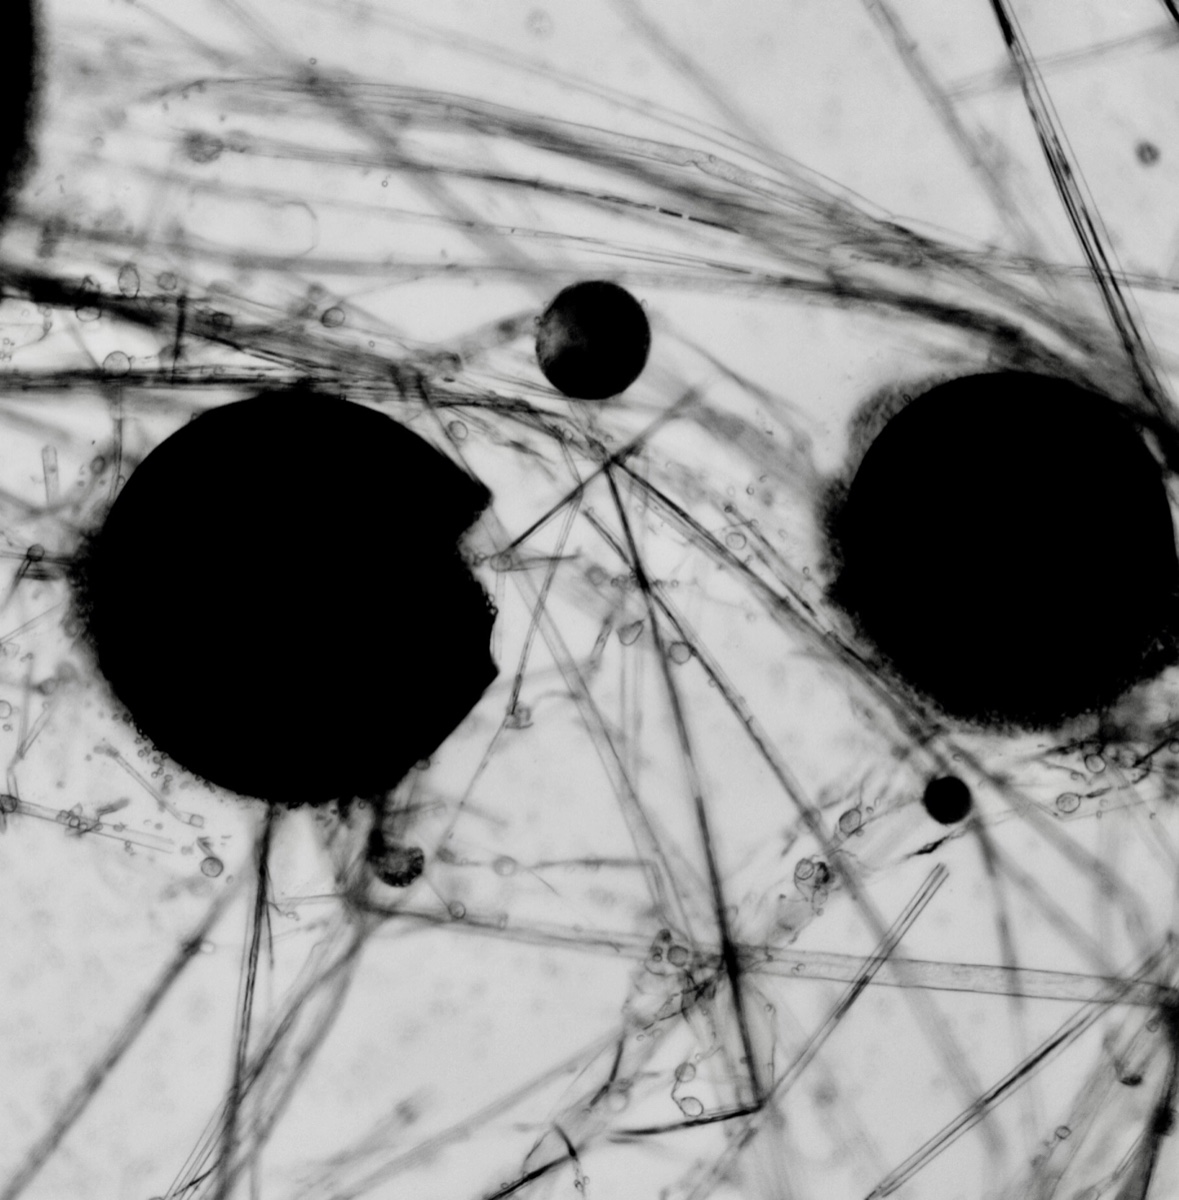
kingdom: Fungi
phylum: Mucoromycota
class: Mucoromycetes
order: Mucorales
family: Pilobolaceae
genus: Pilobolus
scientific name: Pilobolus crystallinus
